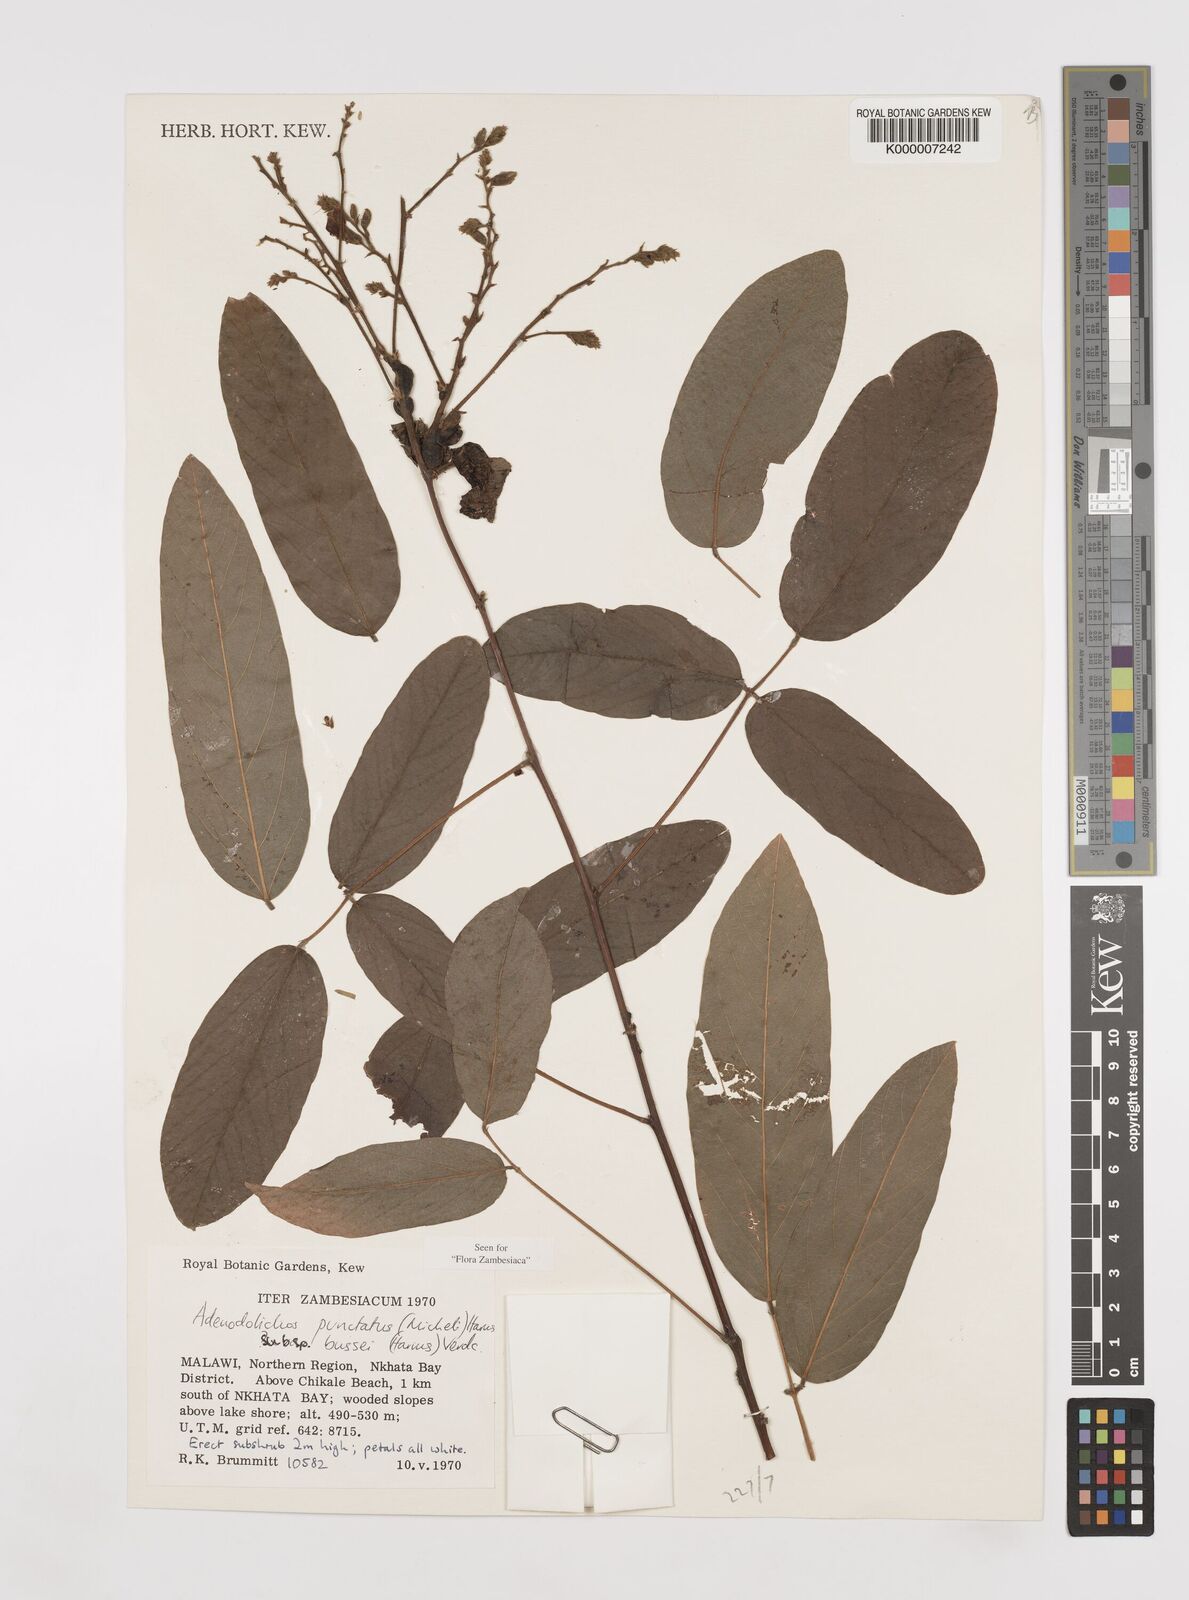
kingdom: Plantae
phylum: Tracheophyta
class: Magnoliopsida
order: Fabales
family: Fabaceae
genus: Adenodolichos
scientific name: Adenodolichos punctatus
